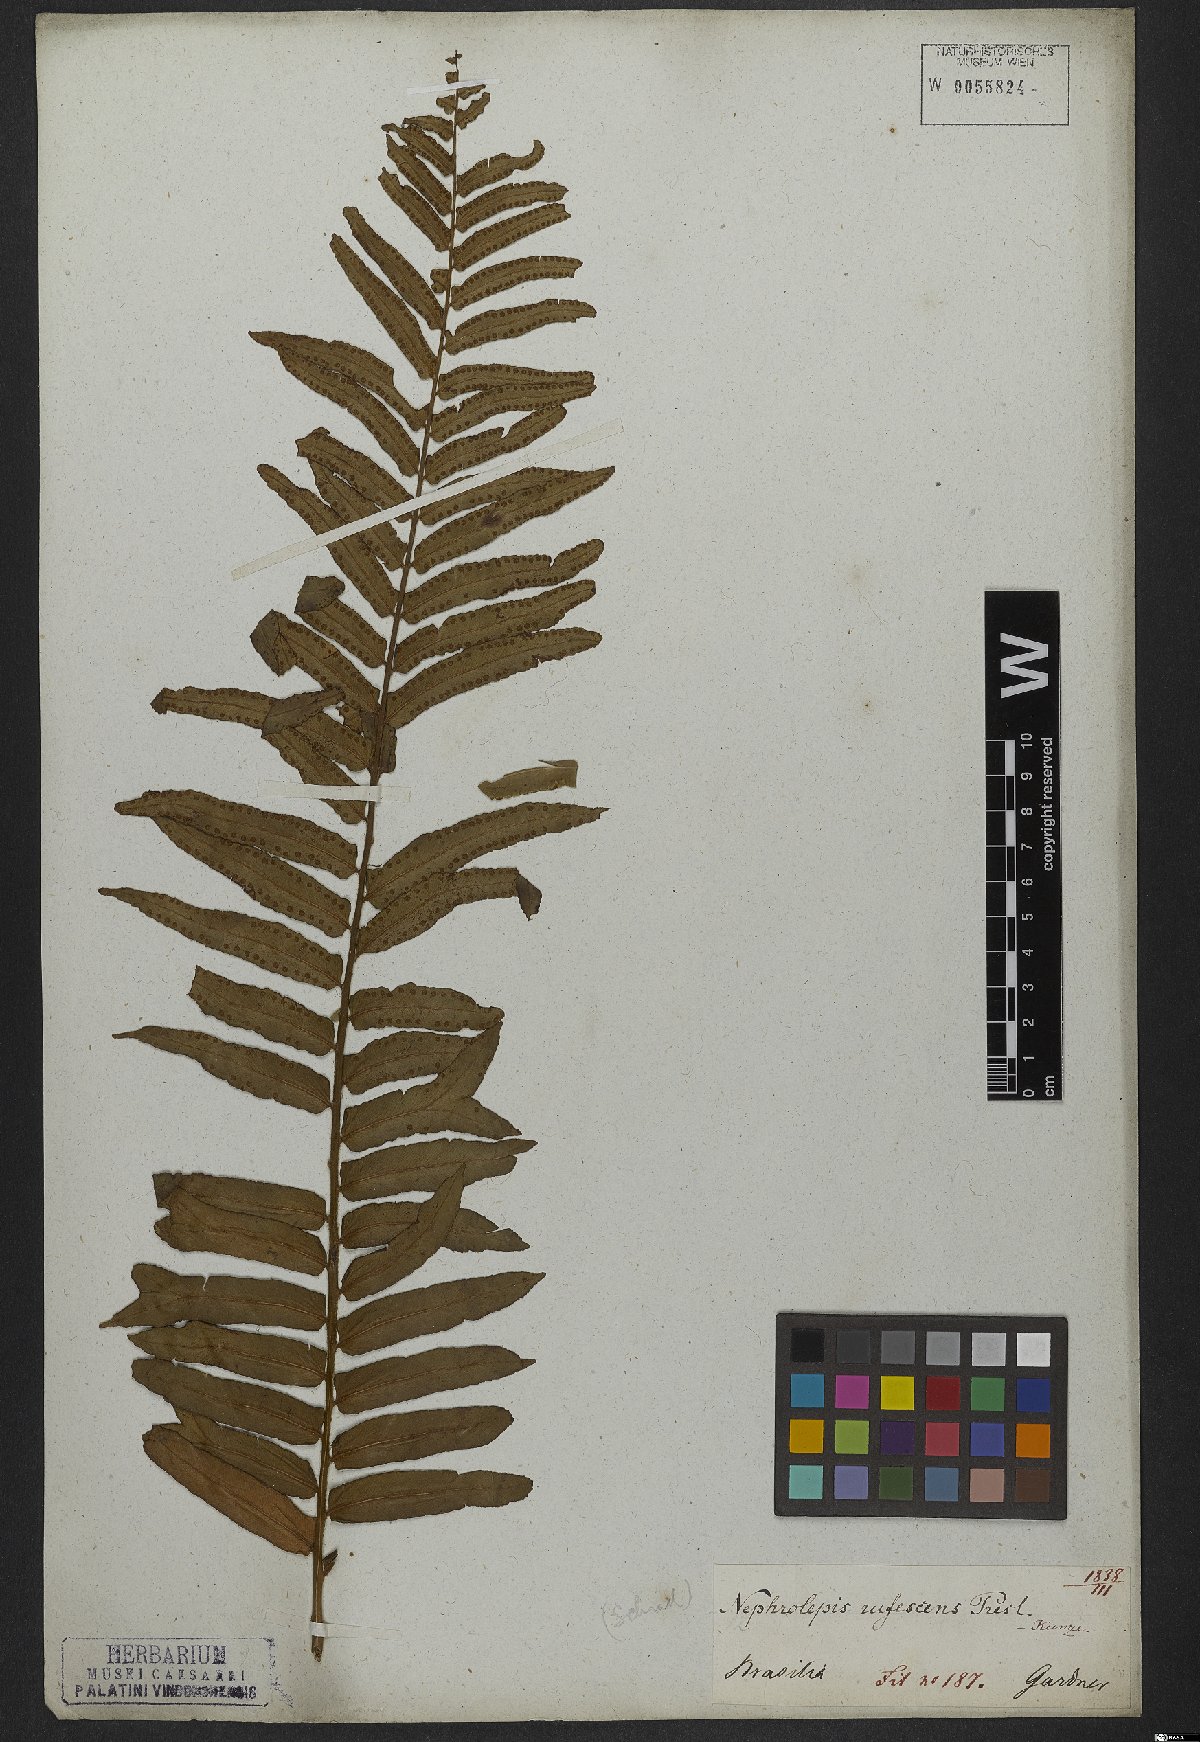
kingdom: Plantae
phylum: Tracheophyta
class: Polypodiopsida
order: Polypodiales
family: Nephrolepidaceae
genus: Nephrolepis
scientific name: Nephrolepis biserrata
